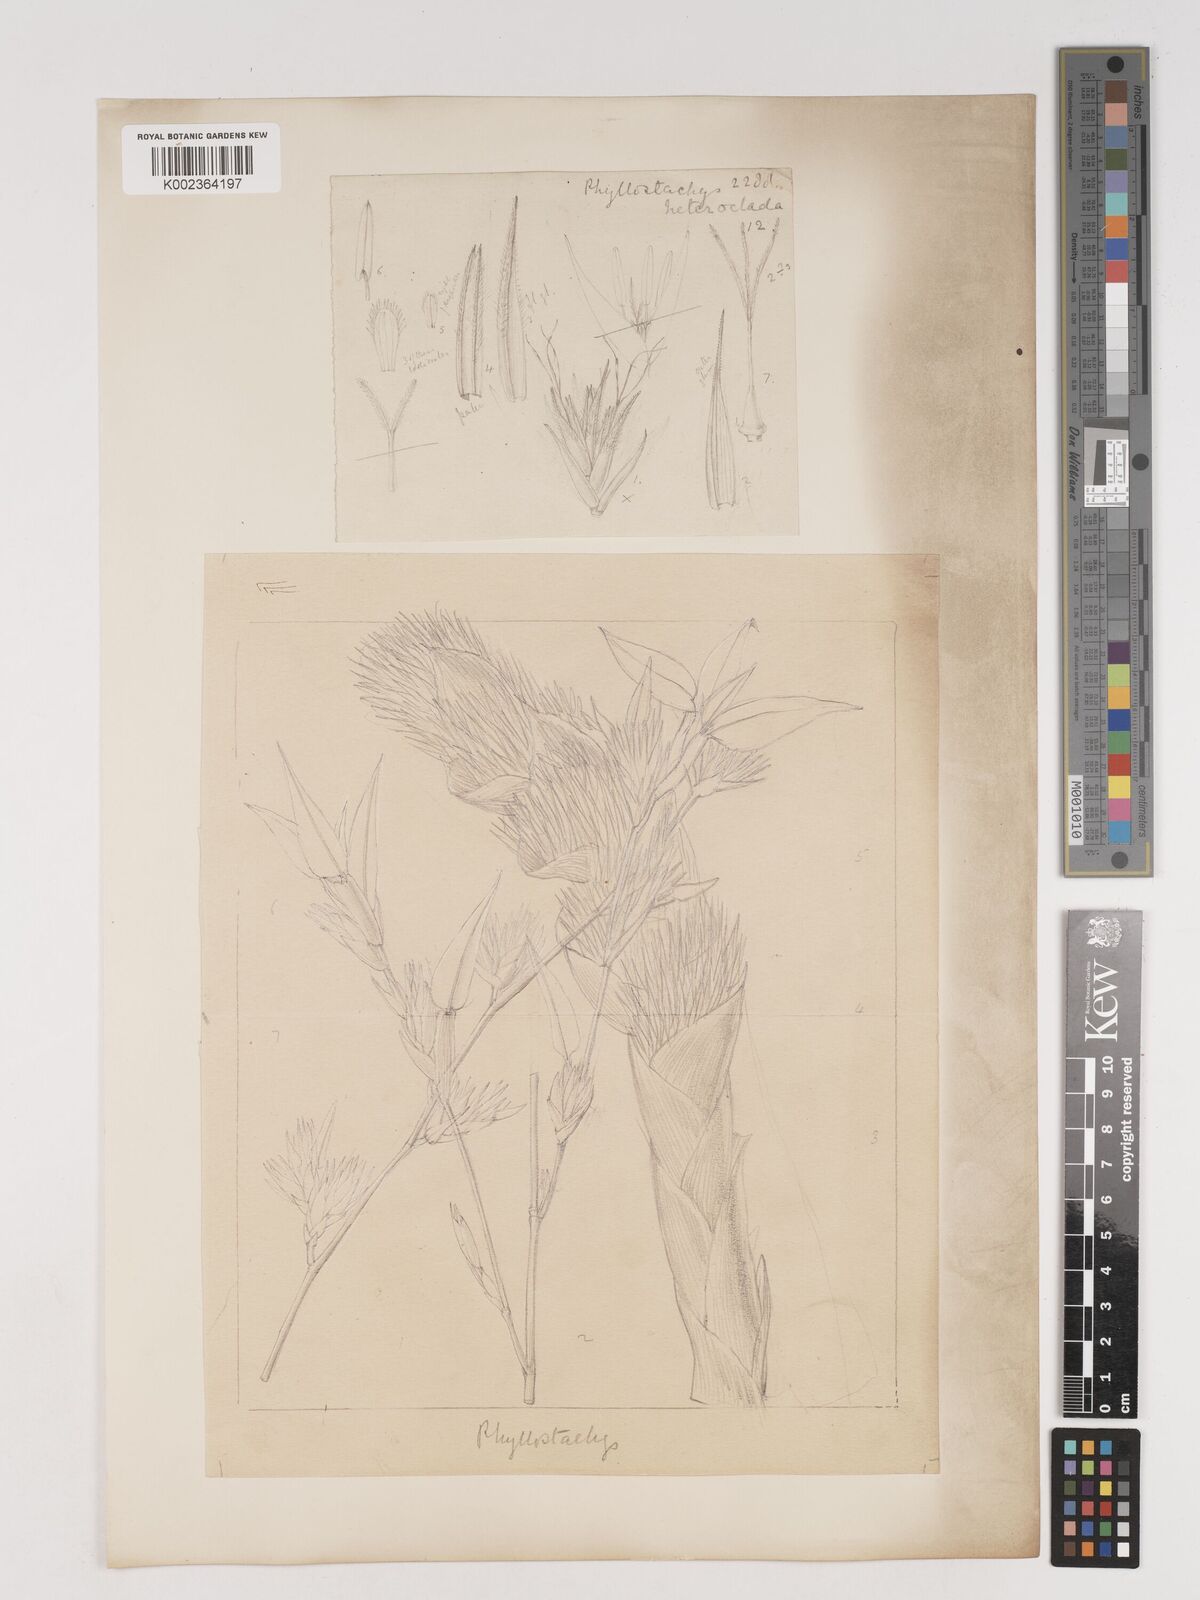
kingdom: Plantae
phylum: Tracheophyta
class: Liliopsida
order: Poales
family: Poaceae
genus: Phyllostachys
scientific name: Phyllostachys heteroclada
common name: Fishscale bamboo
